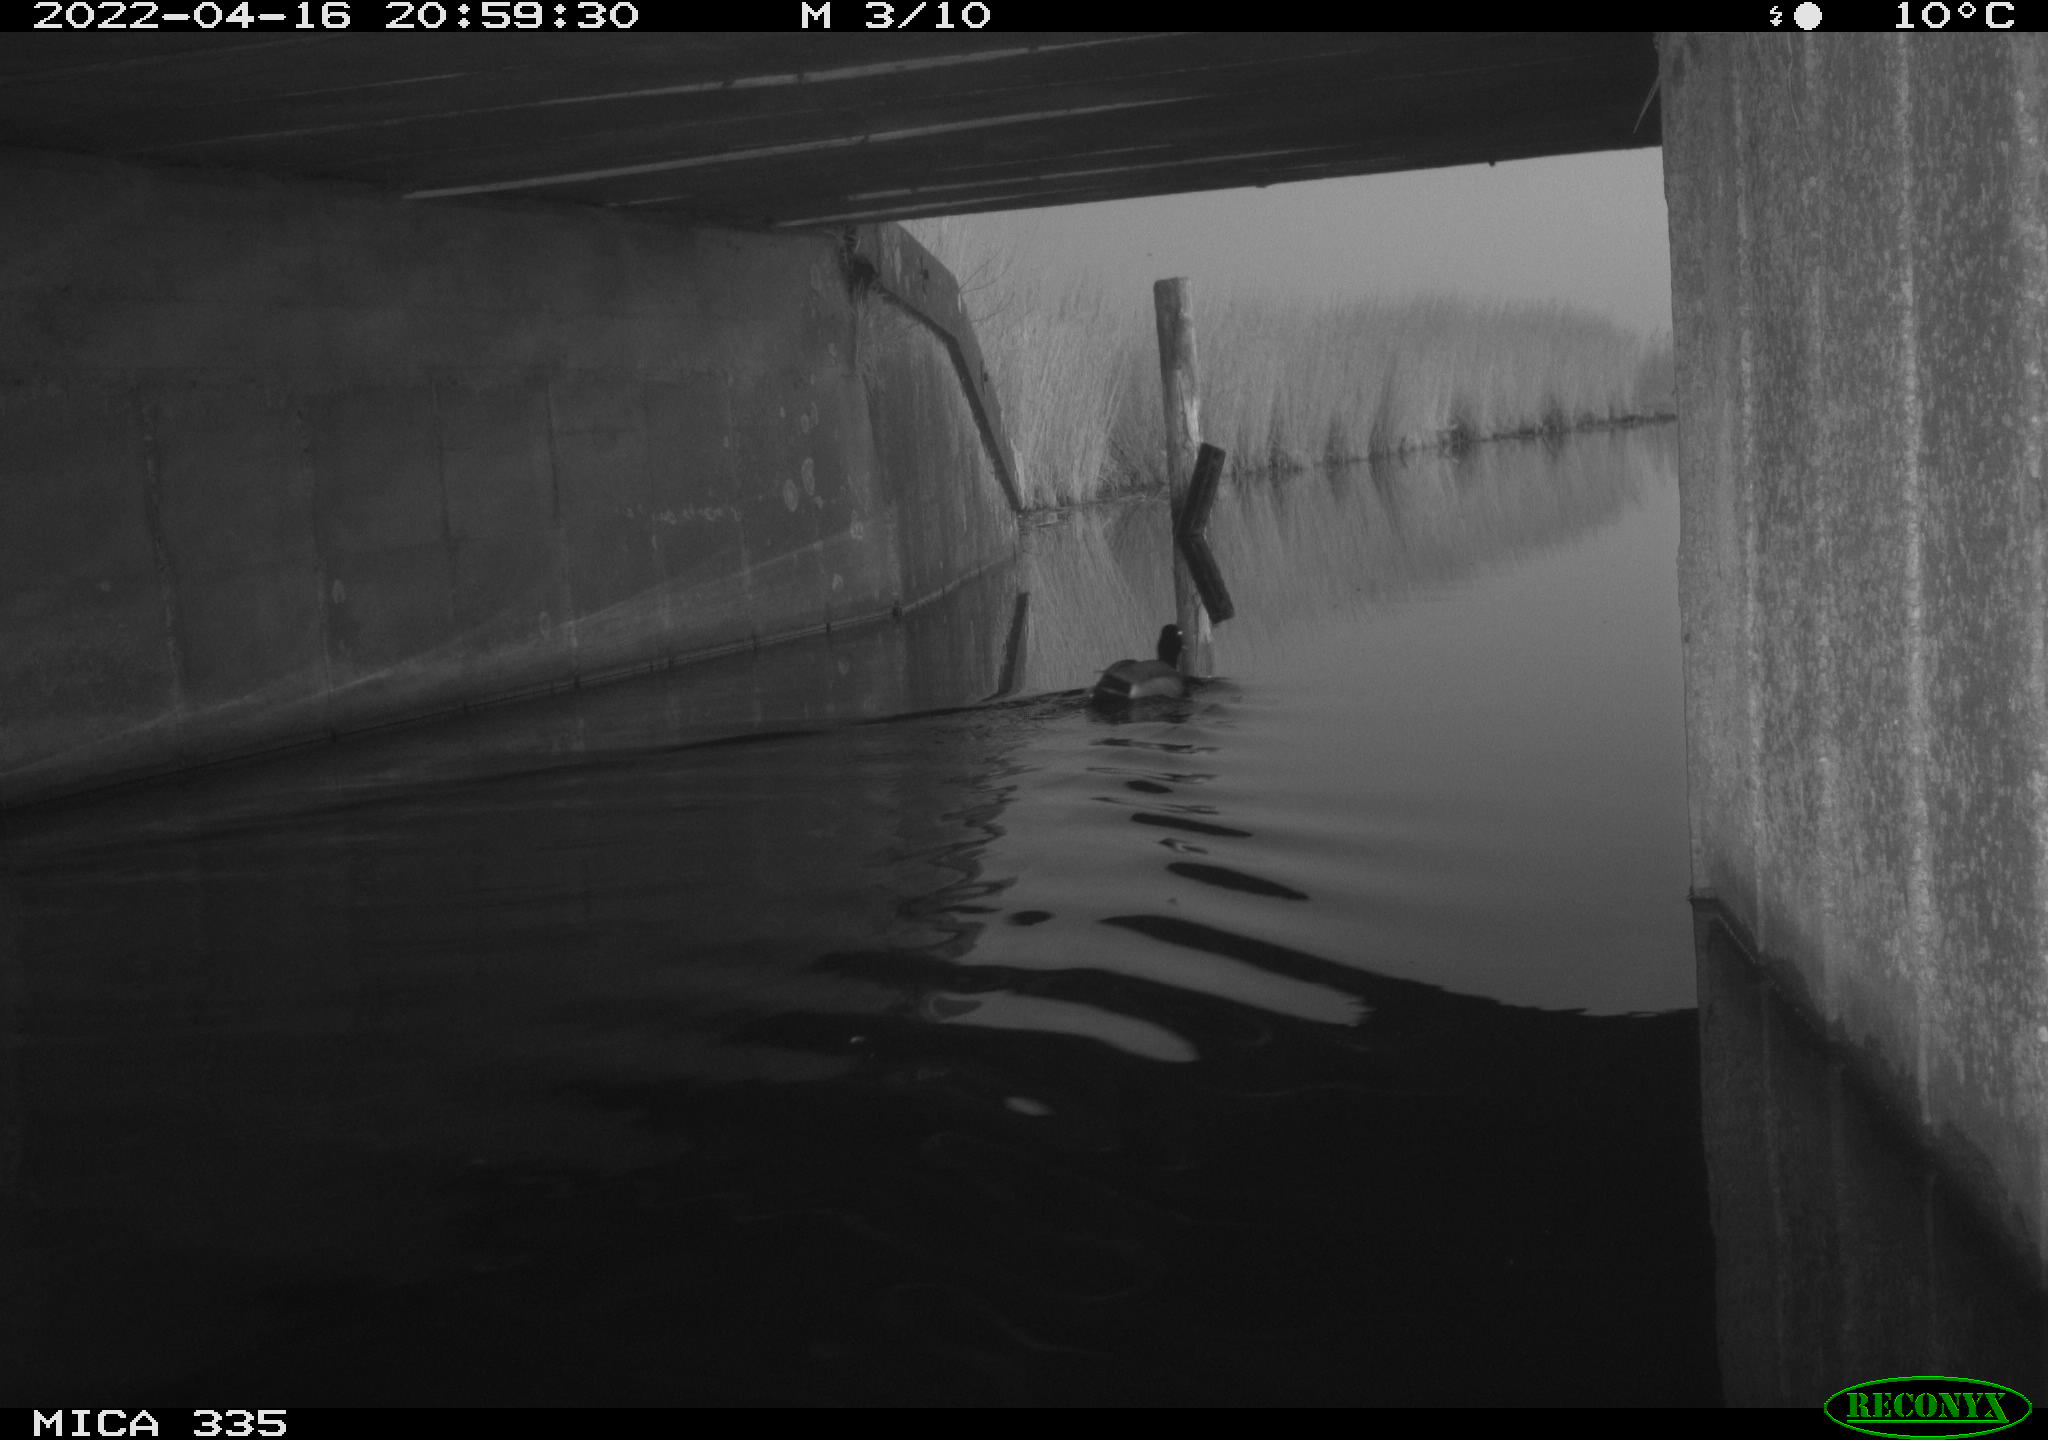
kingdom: Animalia
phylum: Chordata
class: Aves
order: Anseriformes
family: Anatidae
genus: Anas
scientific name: Anas platyrhynchos
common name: Mallard
